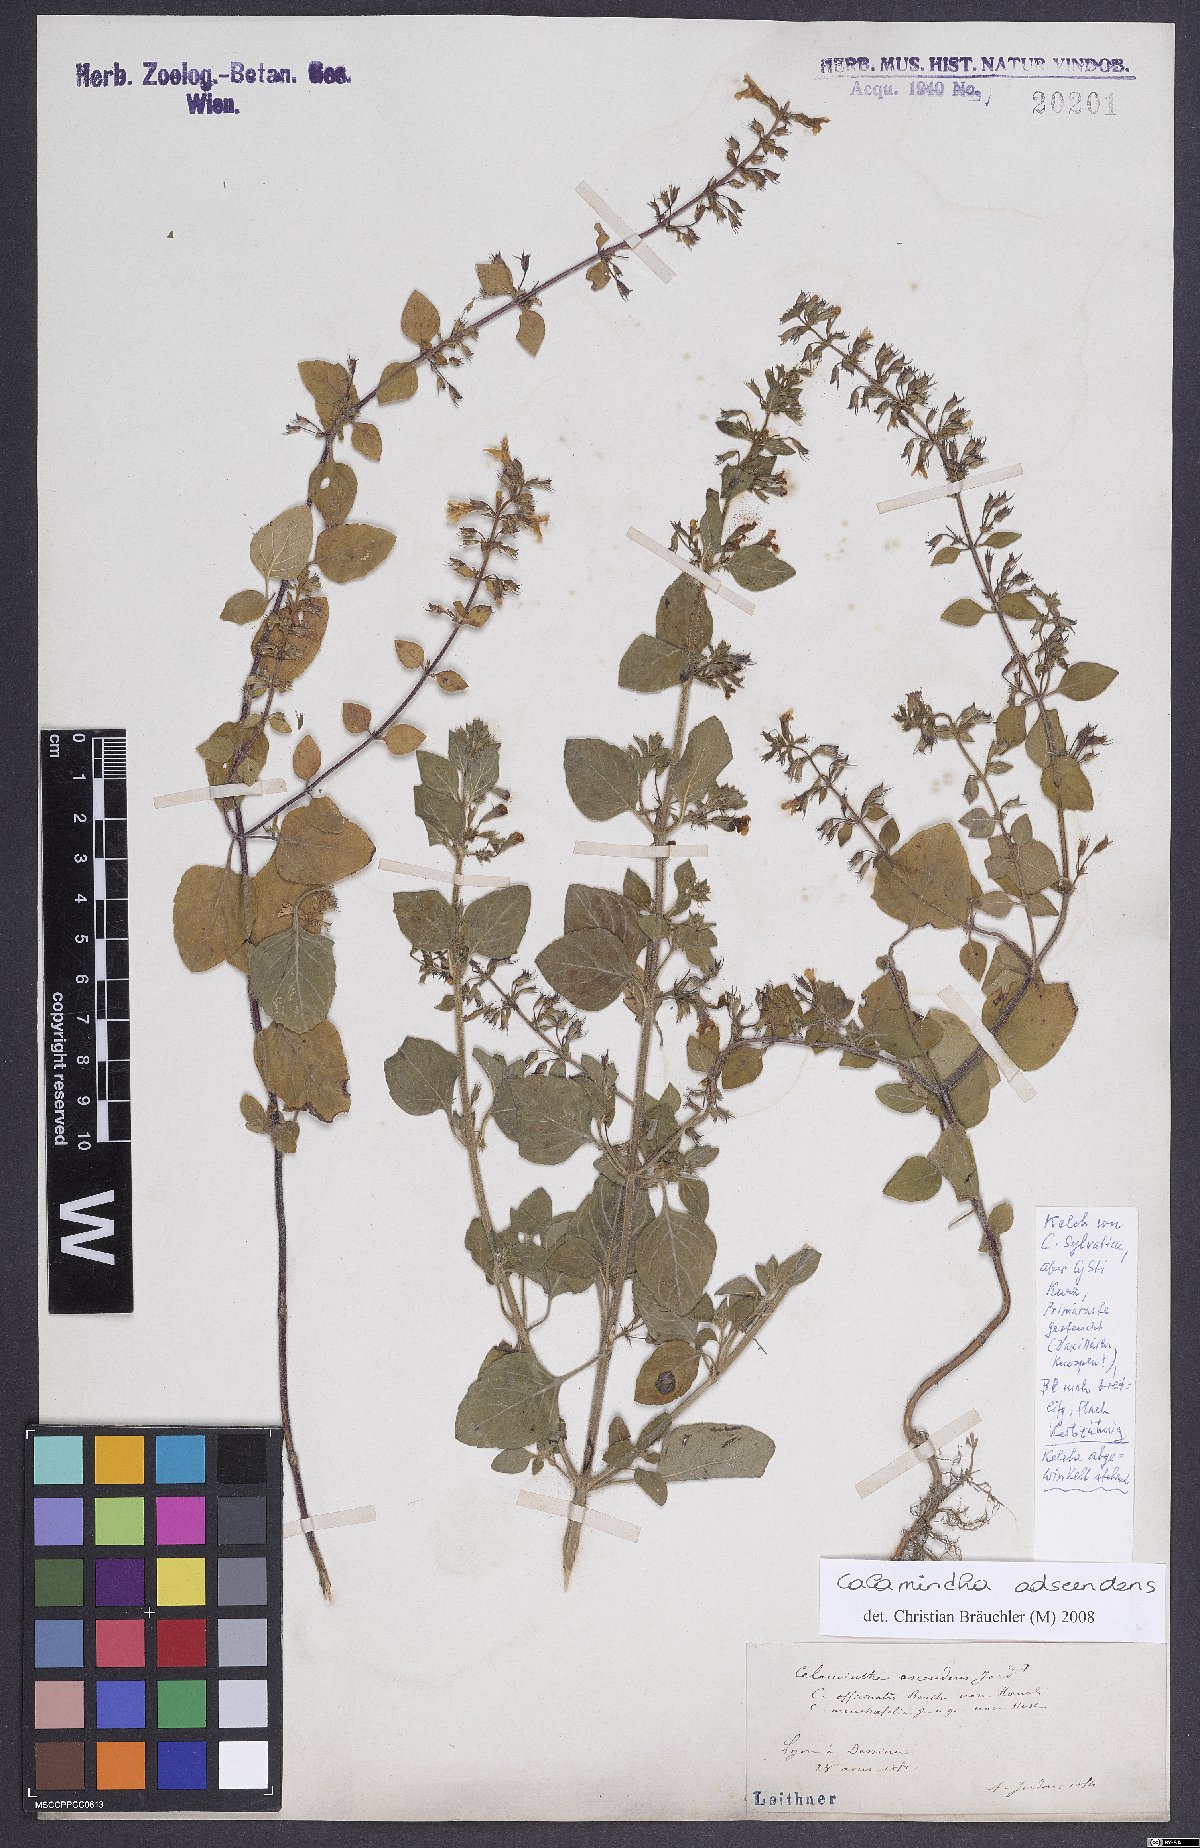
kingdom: Plantae
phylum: Tracheophyta
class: Magnoliopsida
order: Lamiales
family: Lamiaceae
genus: Clinopodium
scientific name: Clinopodium menthifolium
